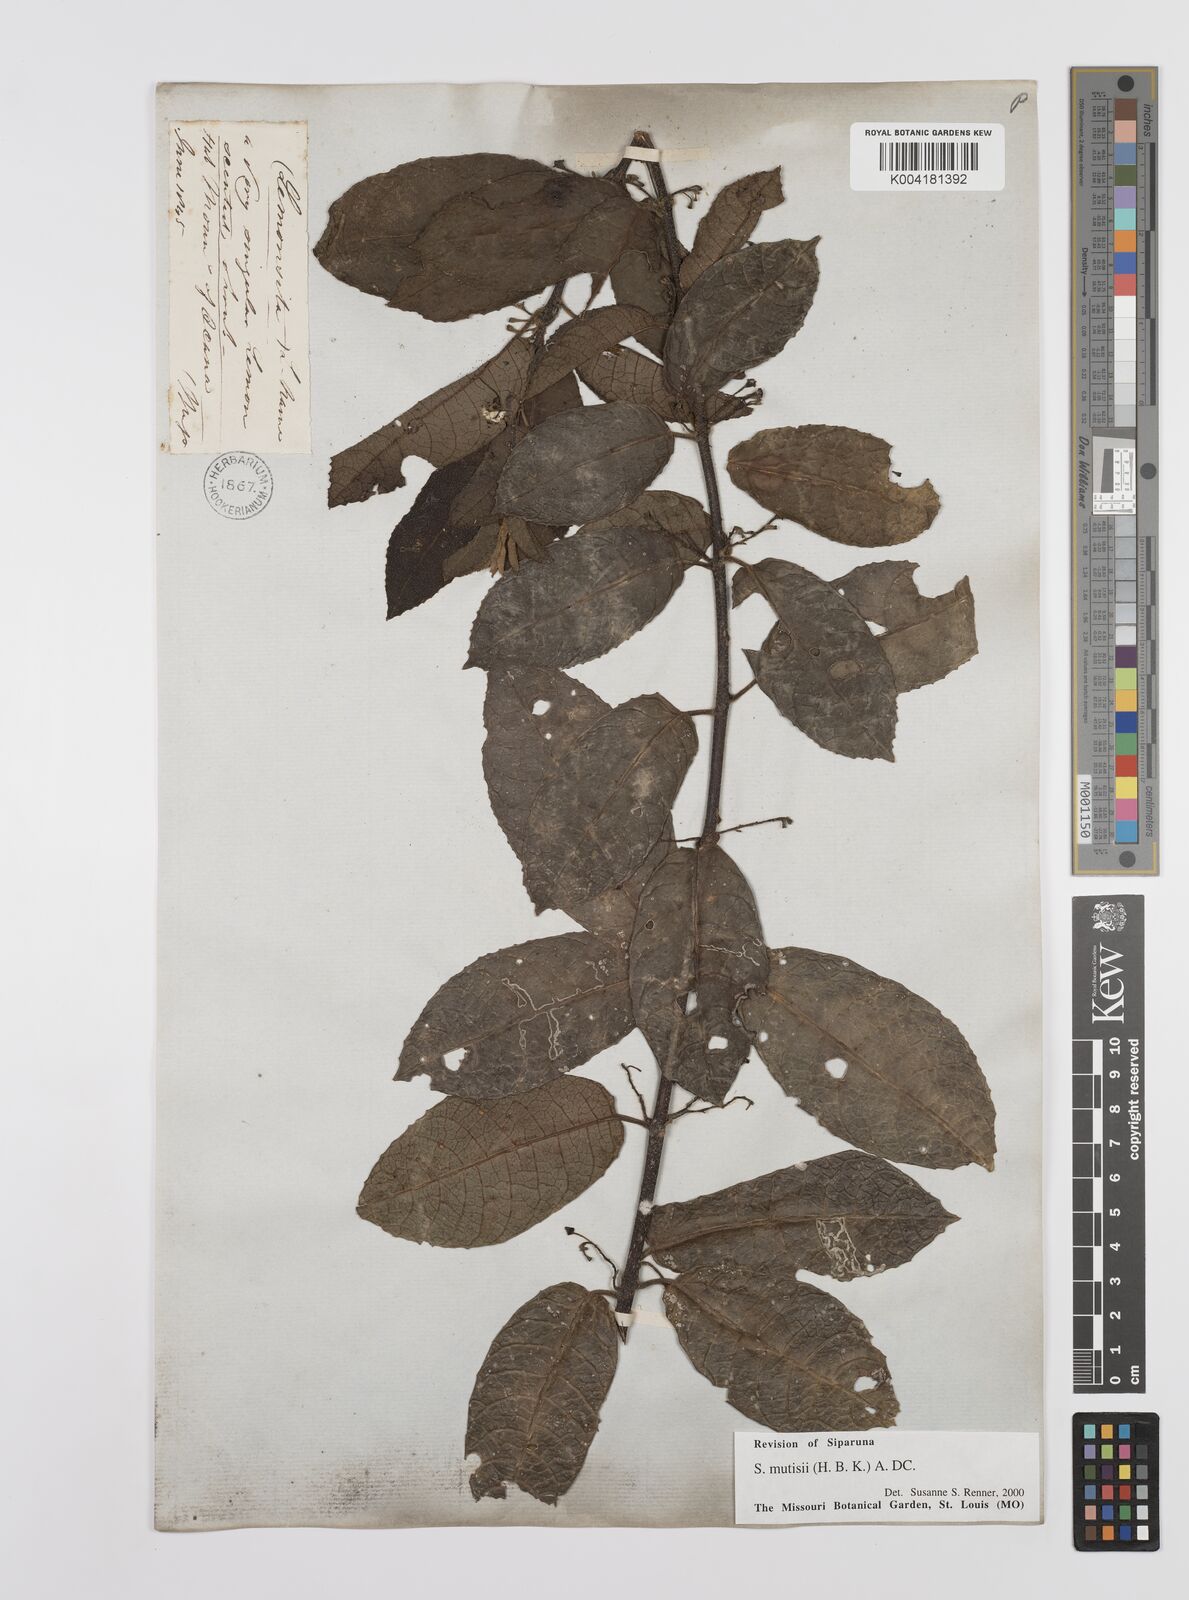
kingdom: Plantae
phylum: Tracheophyta
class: Magnoliopsida
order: Laurales
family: Siparunaceae
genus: Siparuna
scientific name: Siparuna mutisii
